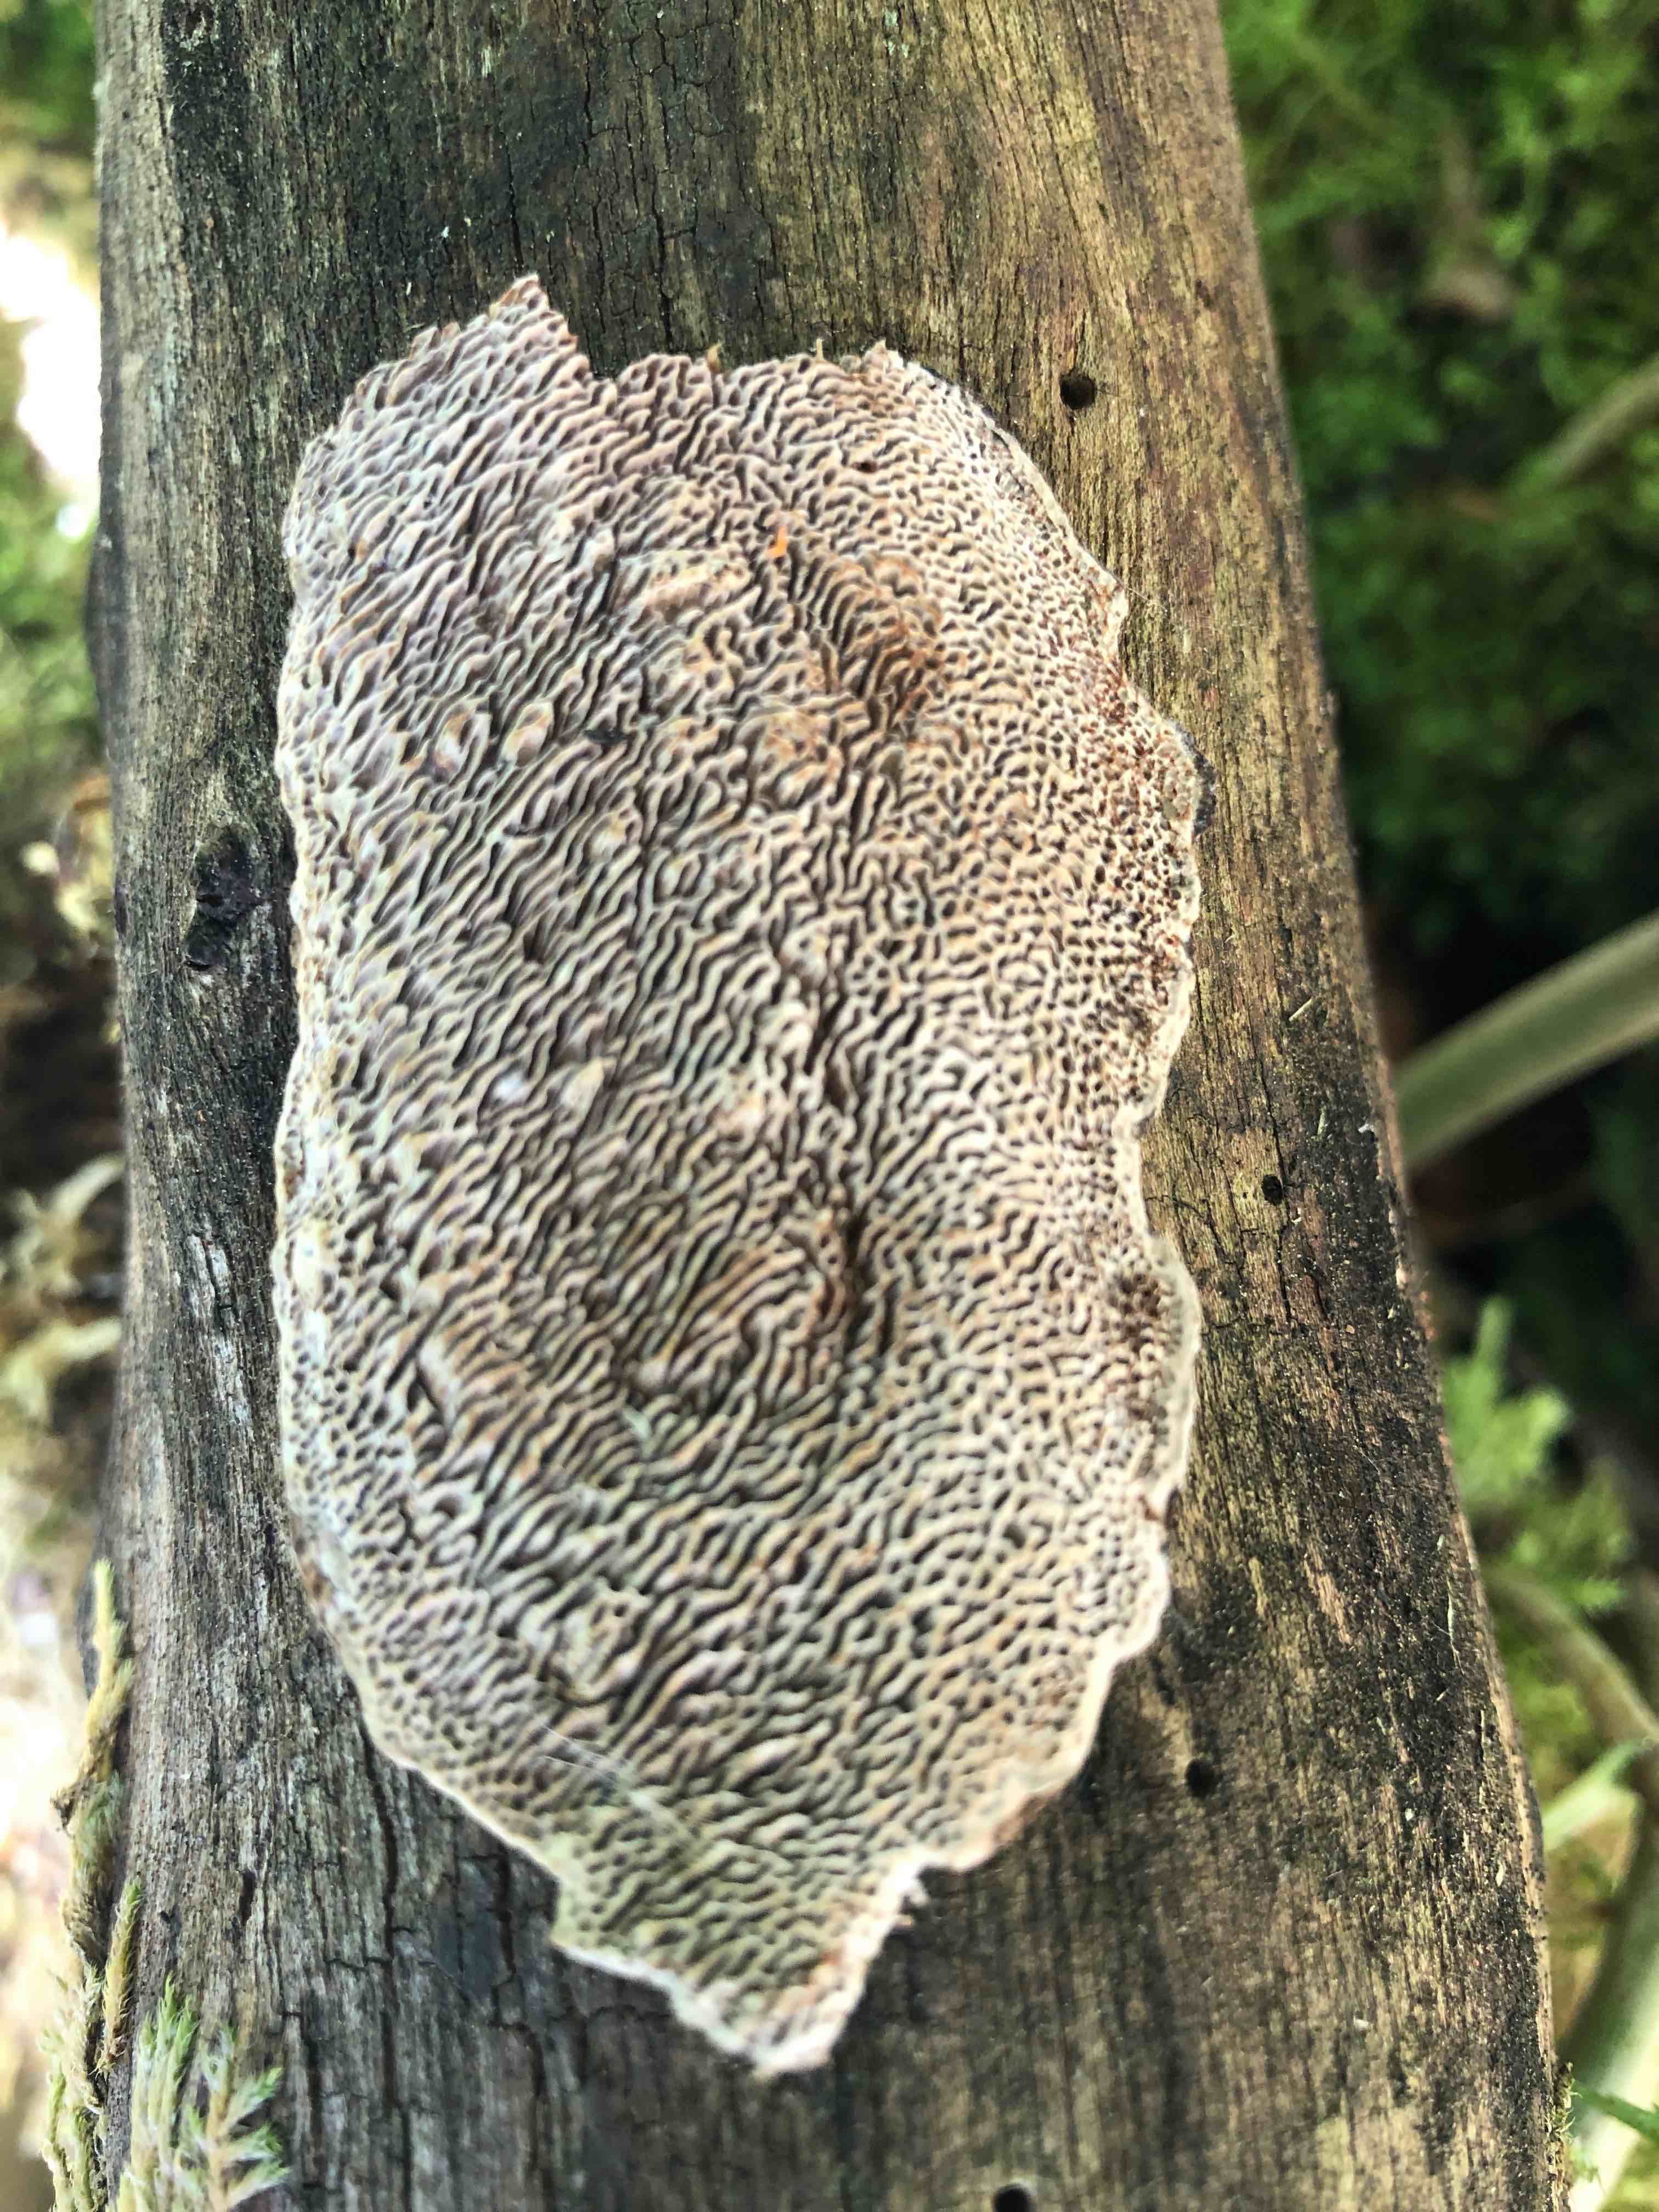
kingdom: Fungi
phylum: Basidiomycota
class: Agaricomycetes
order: Polyporales
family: Polyporaceae
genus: Podofomes
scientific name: Podofomes mollis
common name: blød begporesvamp
